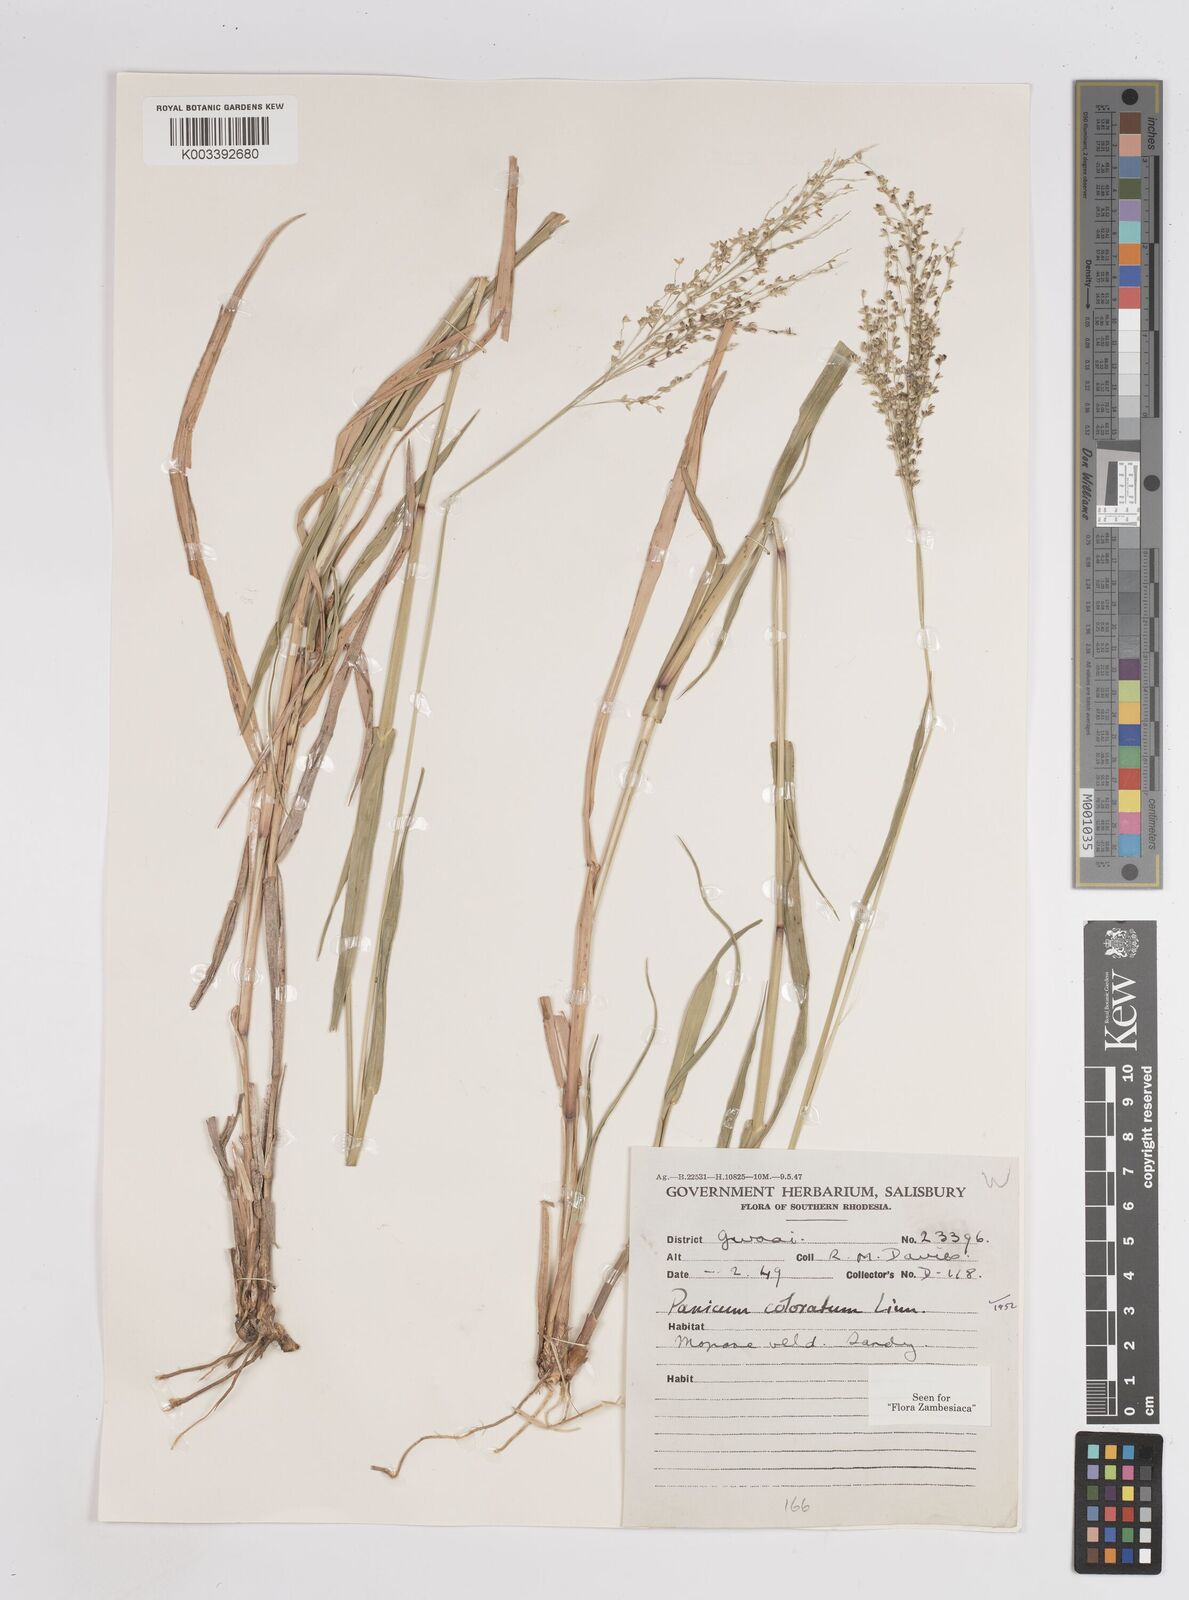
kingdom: Plantae
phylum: Tracheophyta
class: Liliopsida
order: Poales
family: Poaceae
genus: Panicum
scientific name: Panicum
